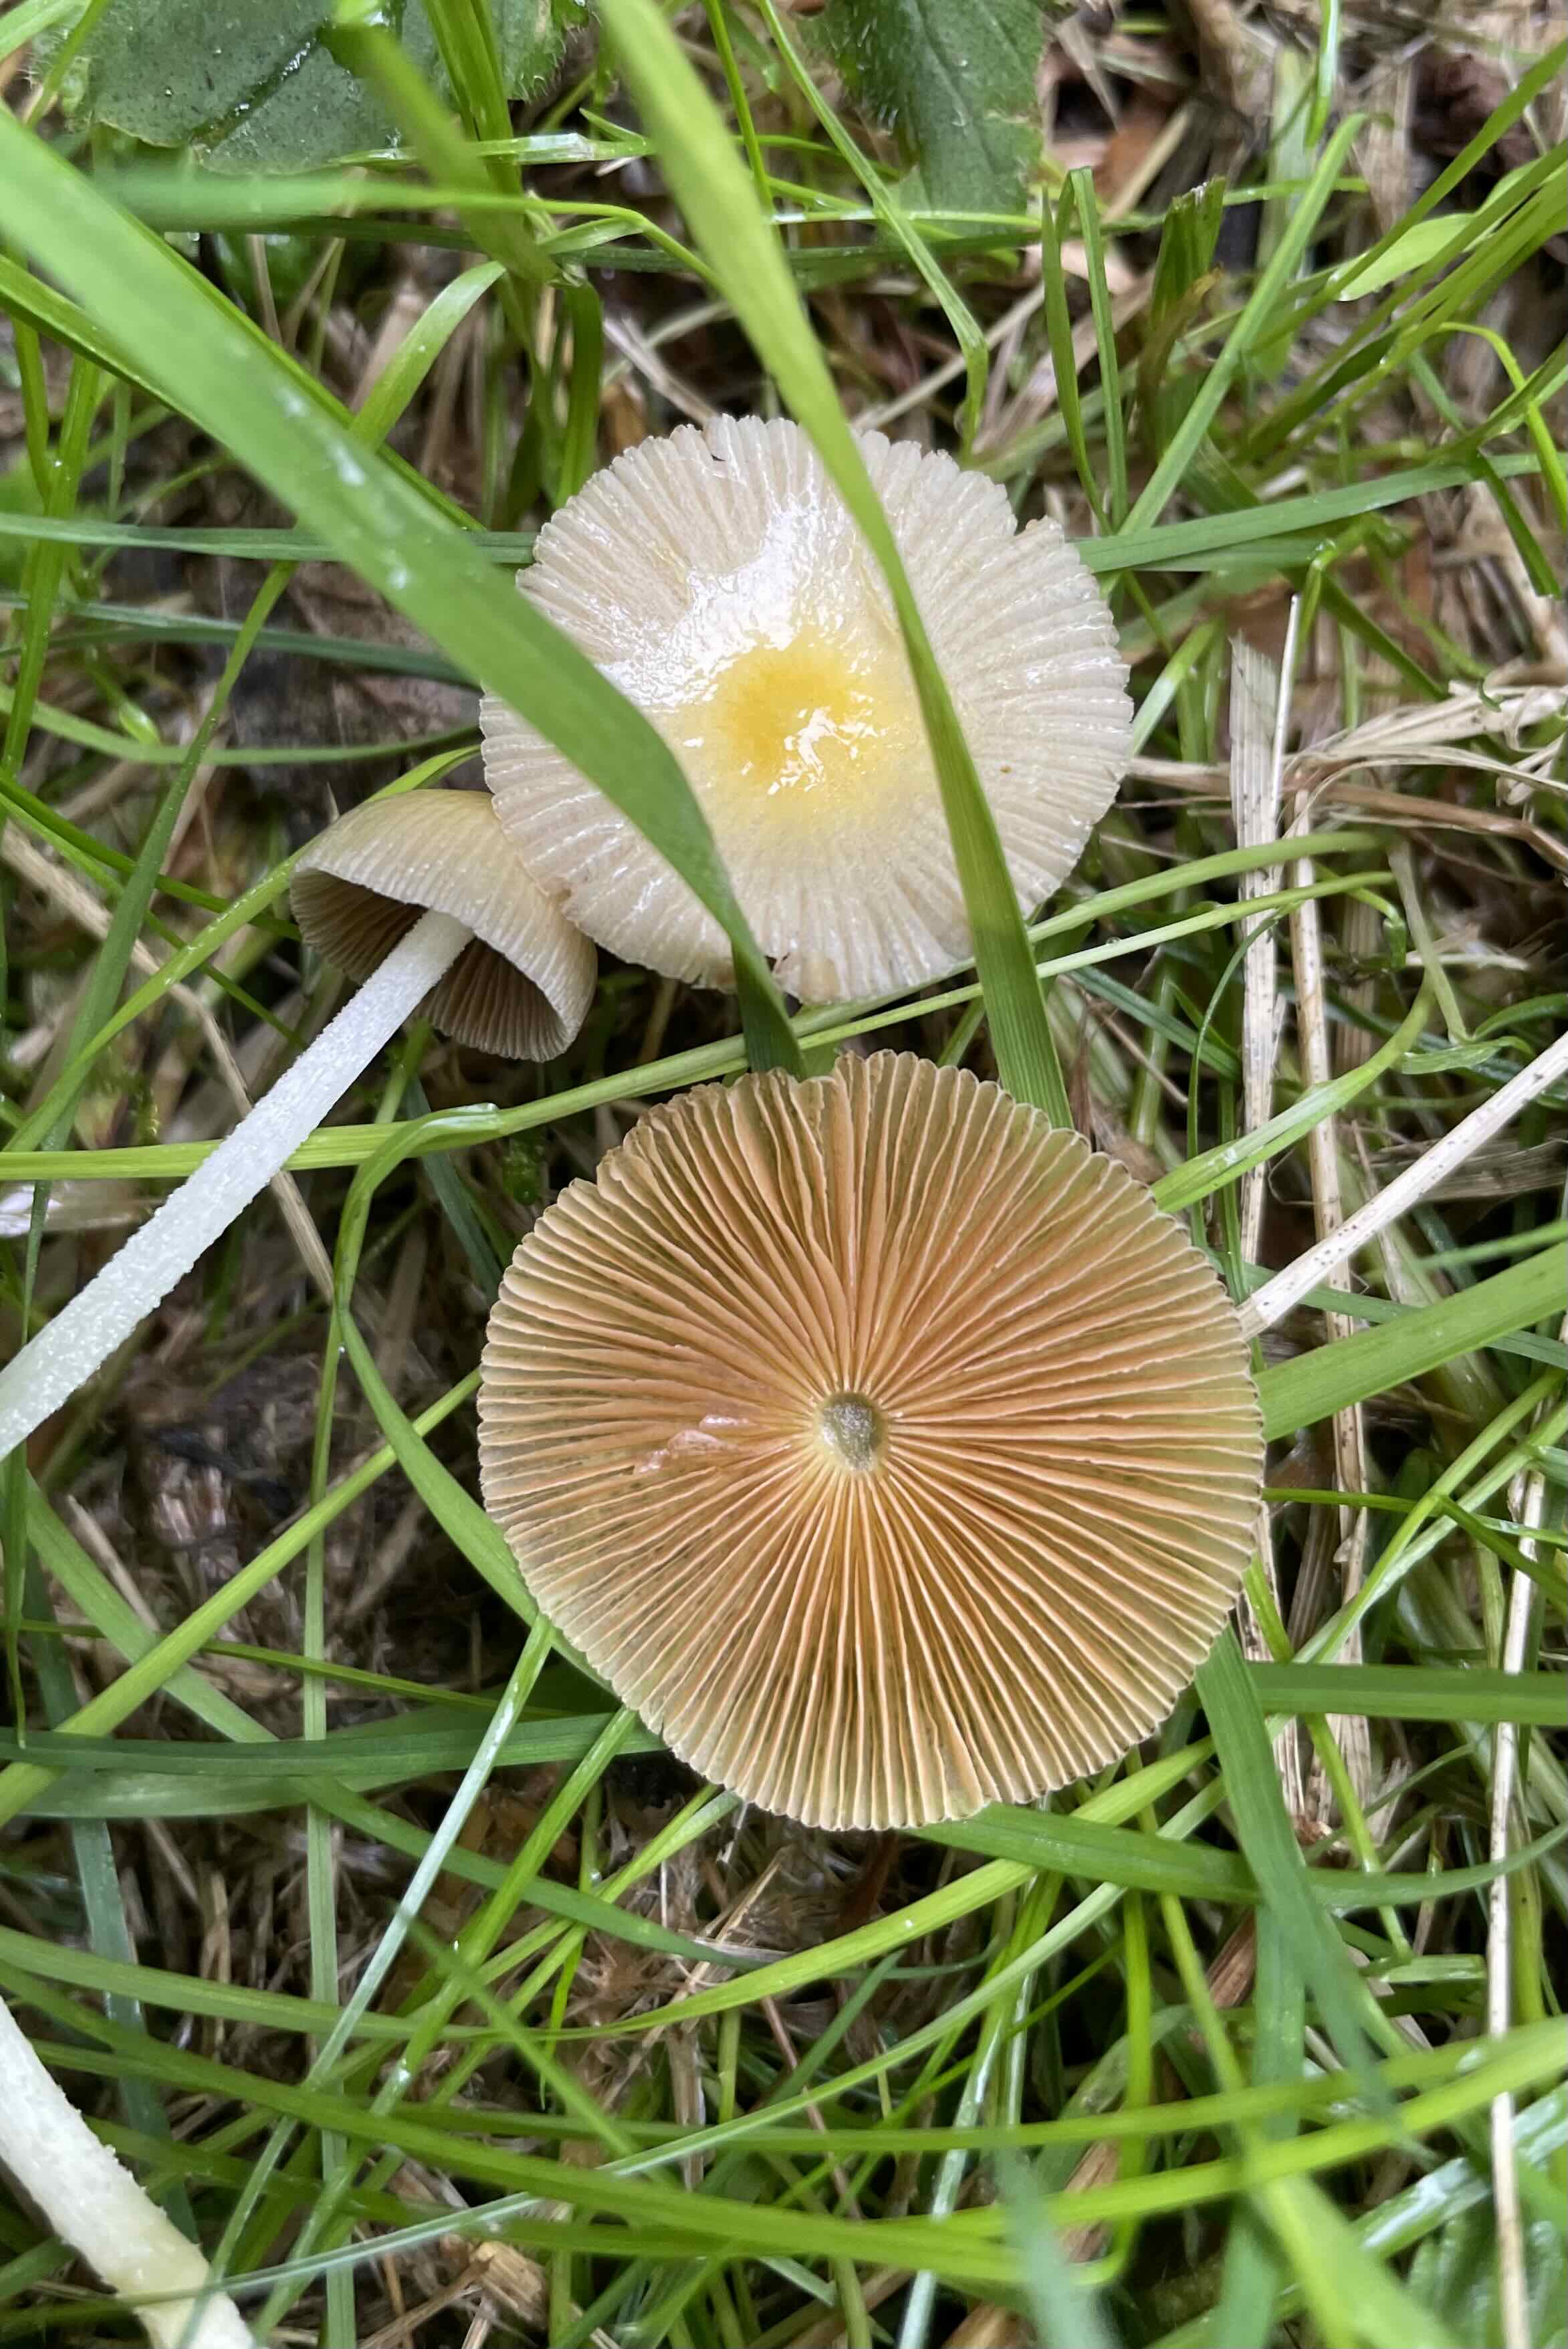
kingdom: Fungi
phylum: Basidiomycota
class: Agaricomycetes
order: Agaricales
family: Bolbitiaceae
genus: Bolbitius
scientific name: Bolbitius titubans
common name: almindelig gulhat
